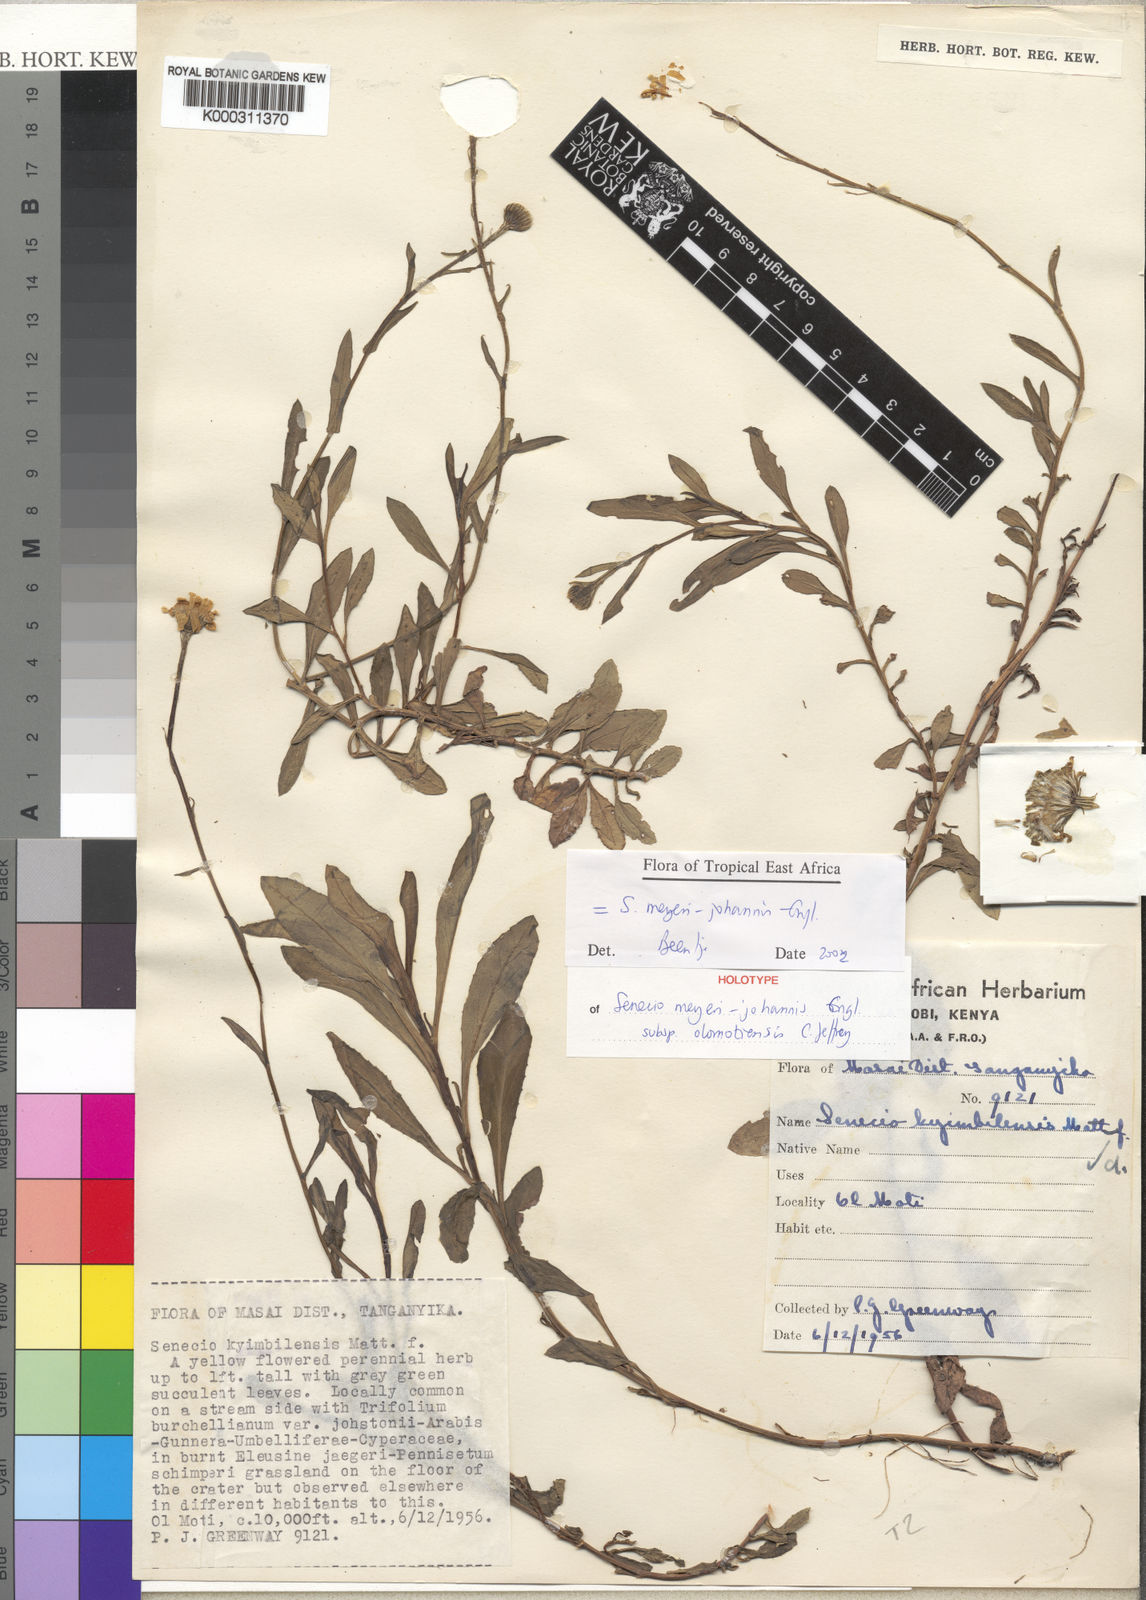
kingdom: Plantae
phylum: Tracheophyta
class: Magnoliopsida
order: Asterales
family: Asteraceae
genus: Senecio
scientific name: Senecio meyeri-johannis
